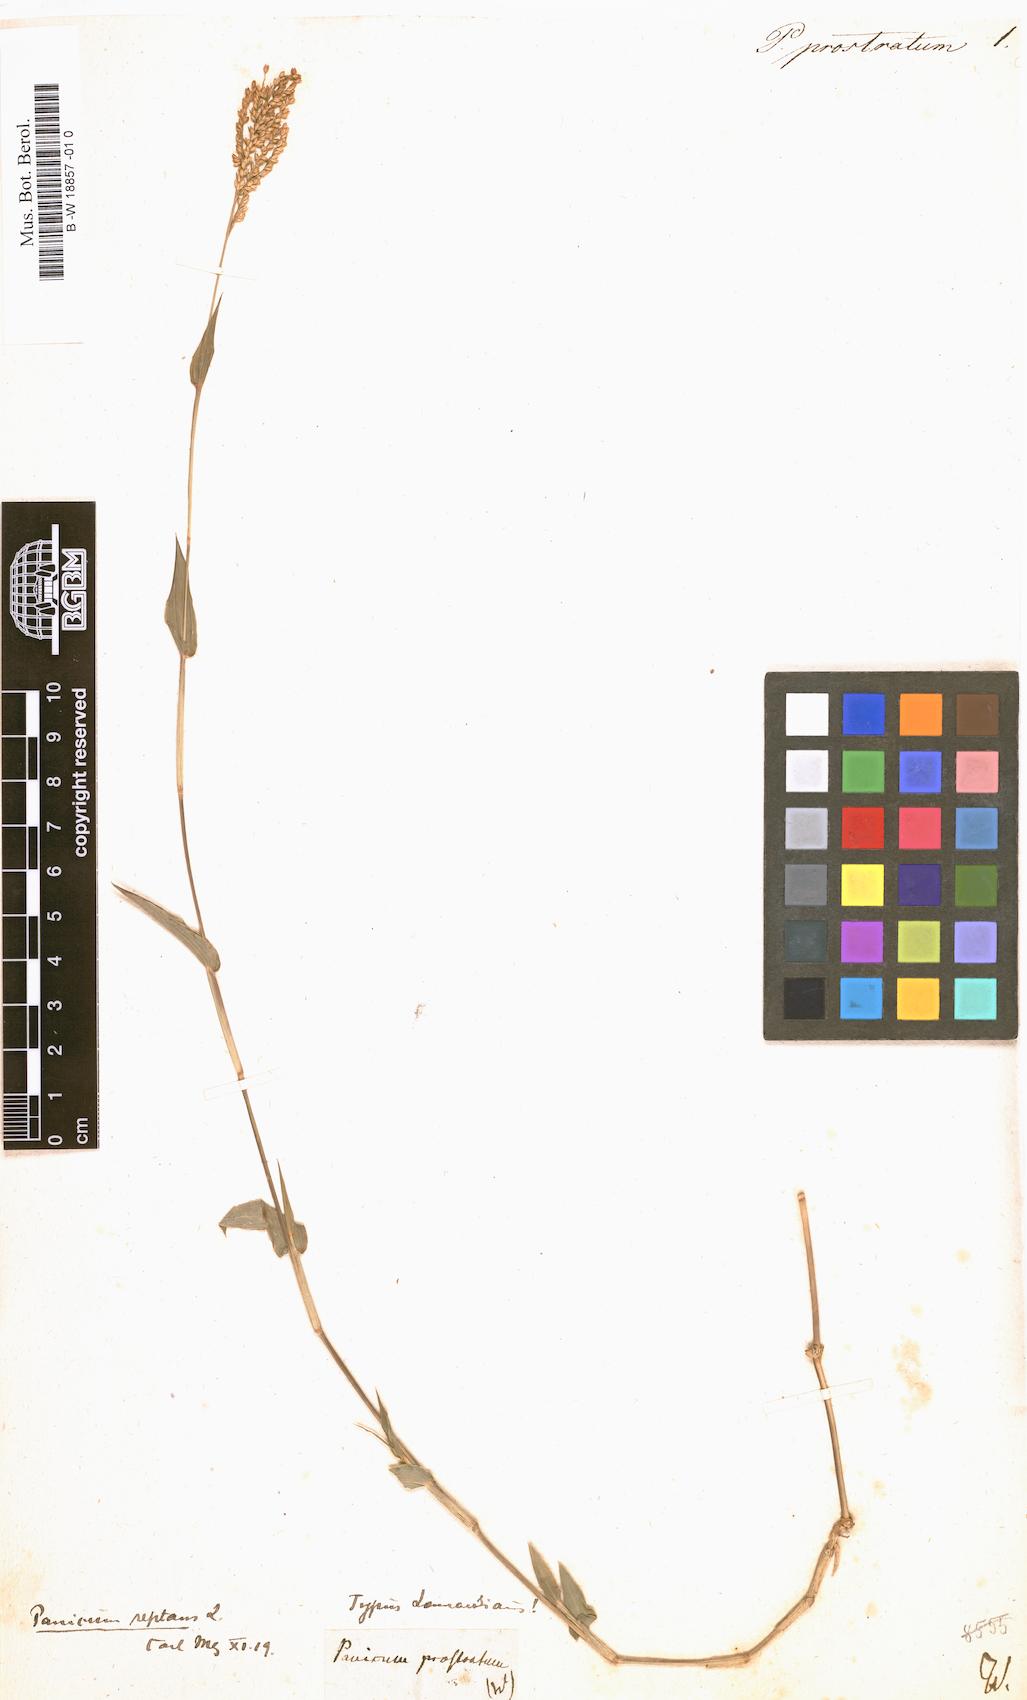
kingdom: Plantae
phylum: Tracheophyta
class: Liliopsida
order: Poales
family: Poaceae
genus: Urochloa
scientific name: Urochloa reptans
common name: Sprawling signalgrass
